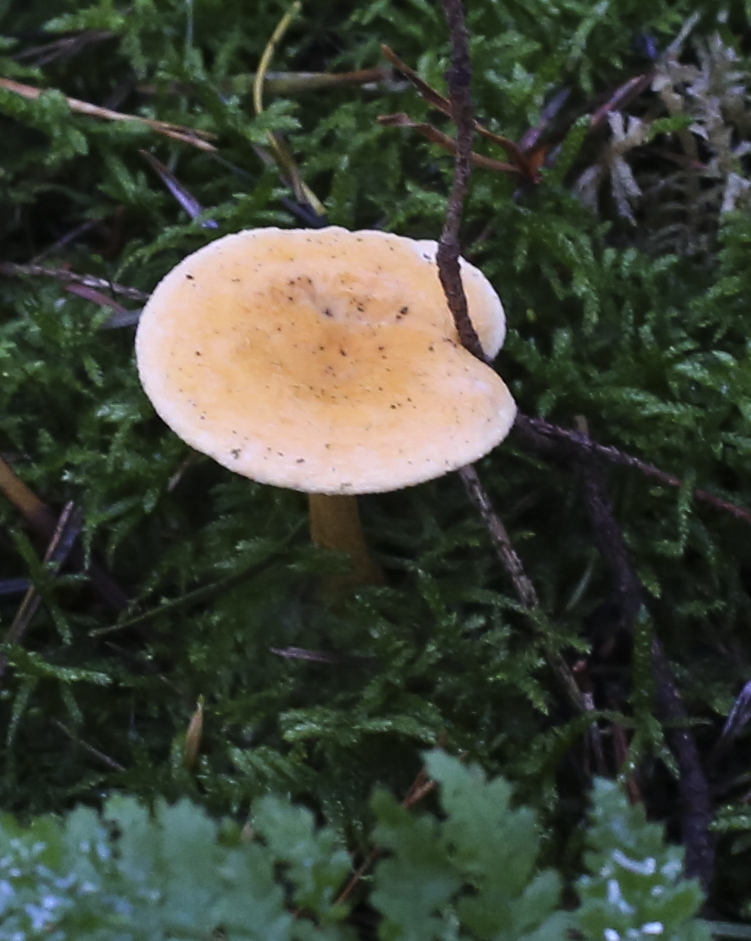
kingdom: Fungi
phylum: Basidiomycota
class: Agaricomycetes
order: Boletales
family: Hygrophoropsidaceae
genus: Hygrophoropsis
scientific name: Hygrophoropsis aurantiaca
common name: almindelig orangekantarel
